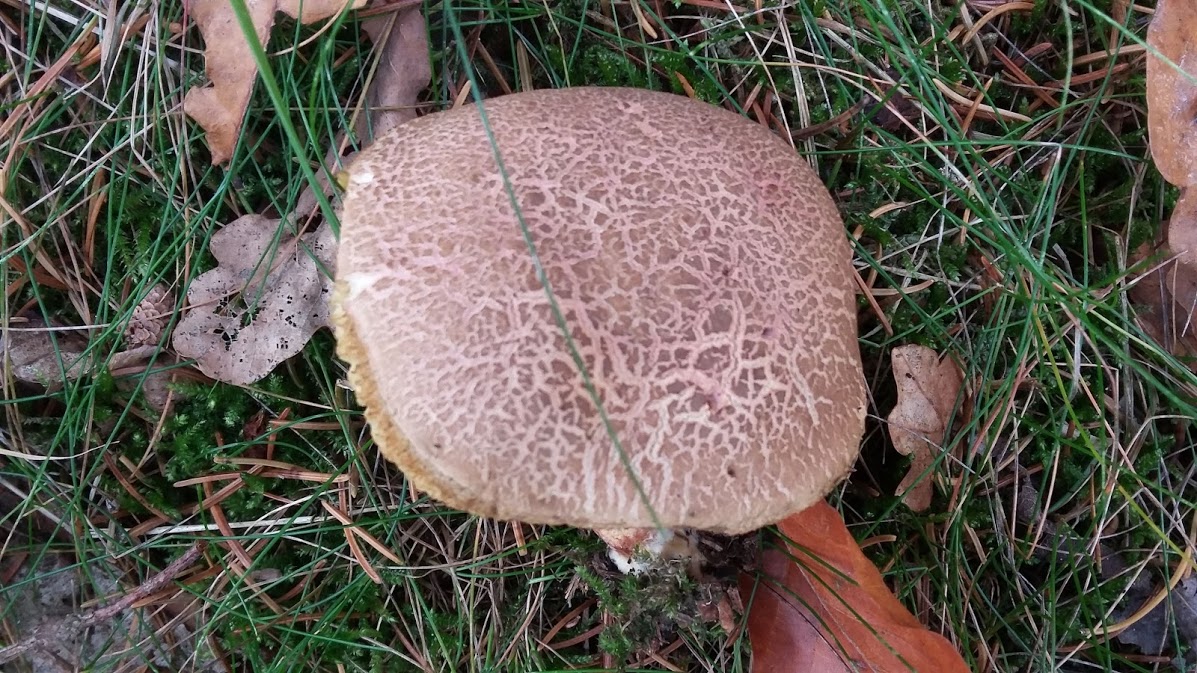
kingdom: Fungi
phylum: Basidiomycota
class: Agaricomycetes
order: Boletales
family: Boletaceae
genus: Xerocomellus
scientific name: Xerocomellus chrysenteron
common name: rødsprukken rørhat
